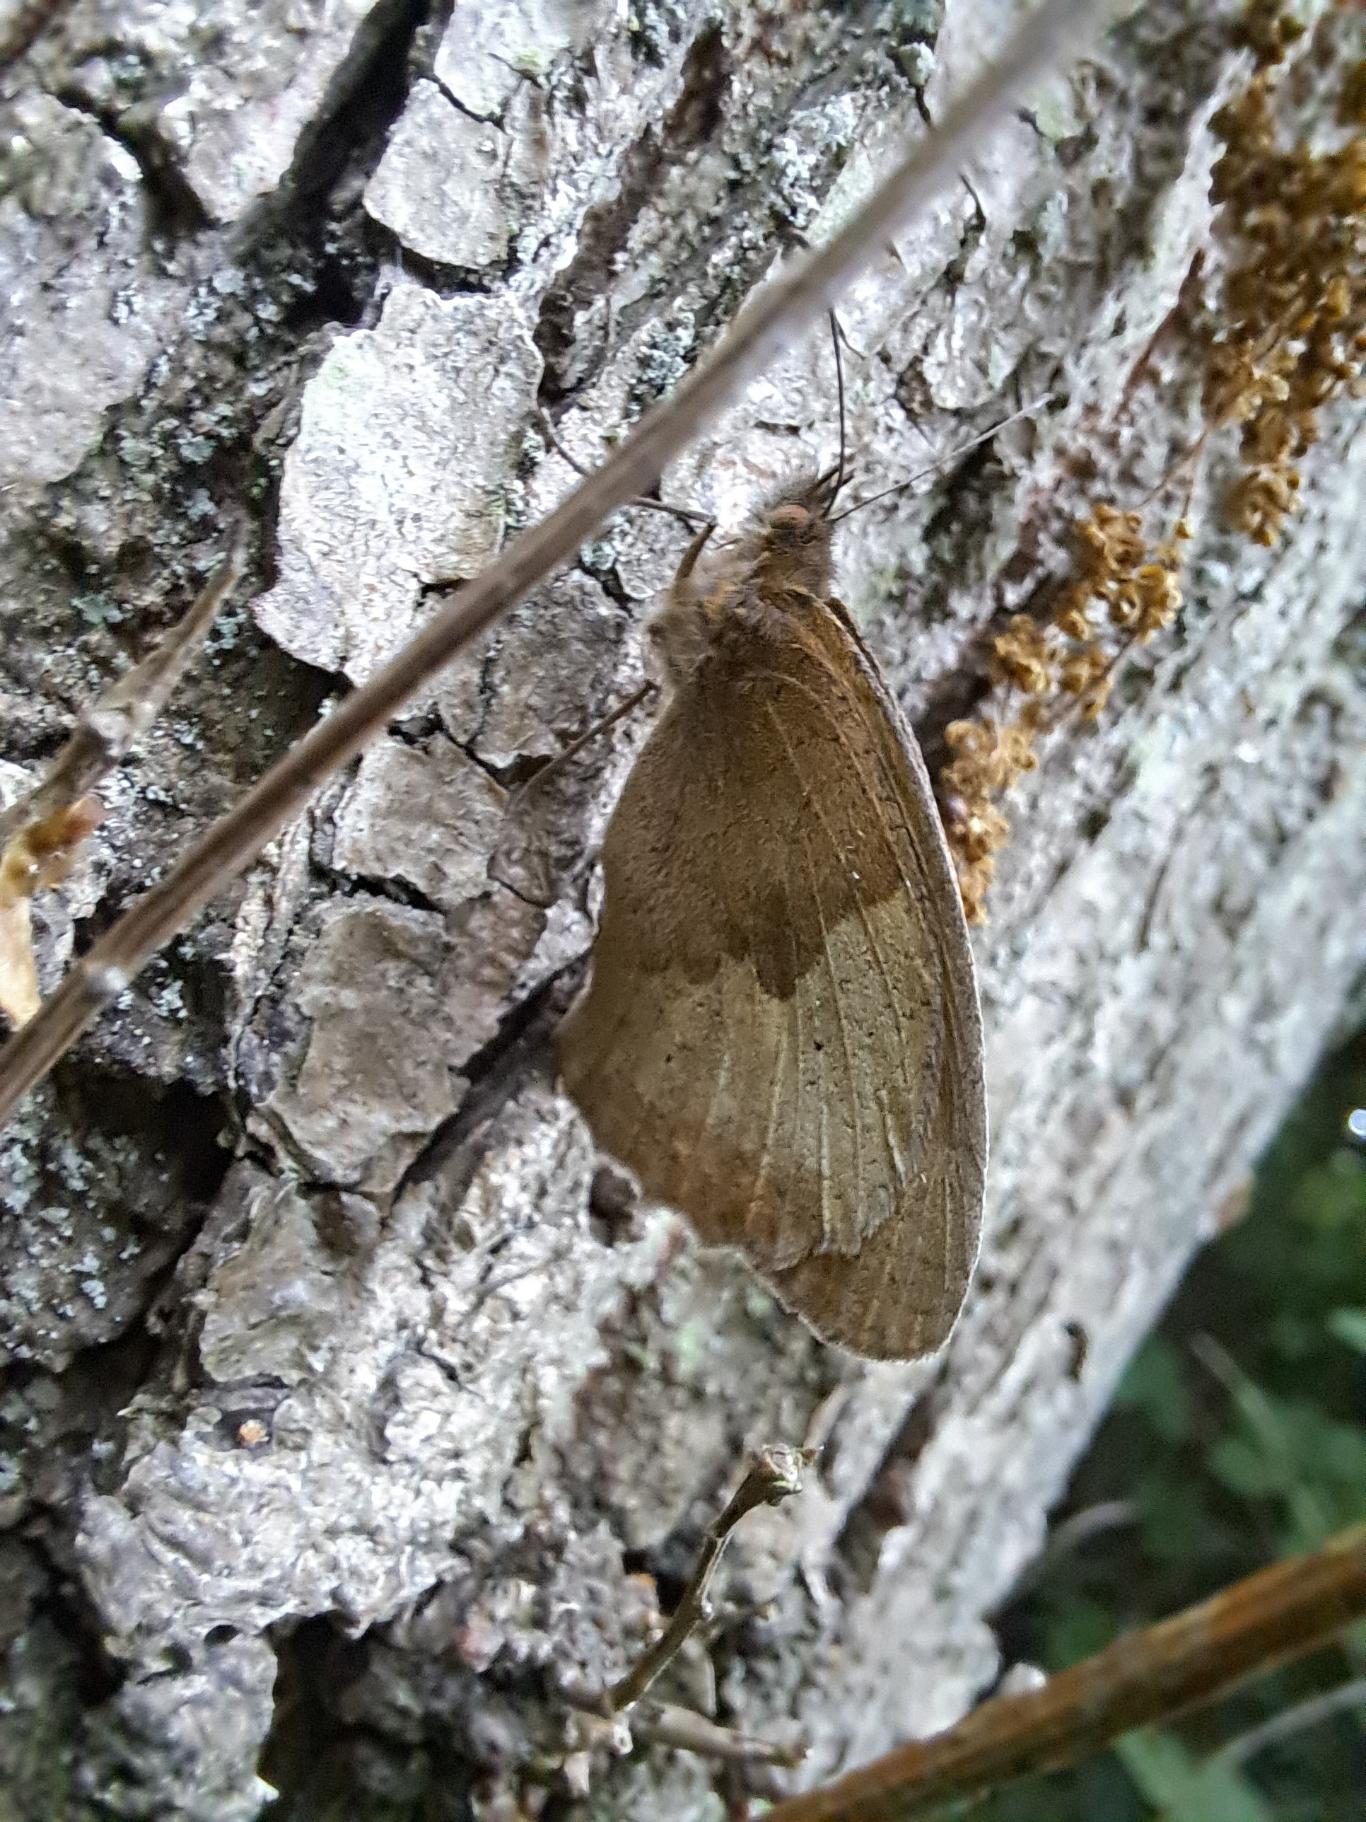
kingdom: Animalia
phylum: Arthropoda
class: Insecta
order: Lepidoptera
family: Nymphalidae
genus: Maniola
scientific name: Maniola jurtina
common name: Græsrandøje
